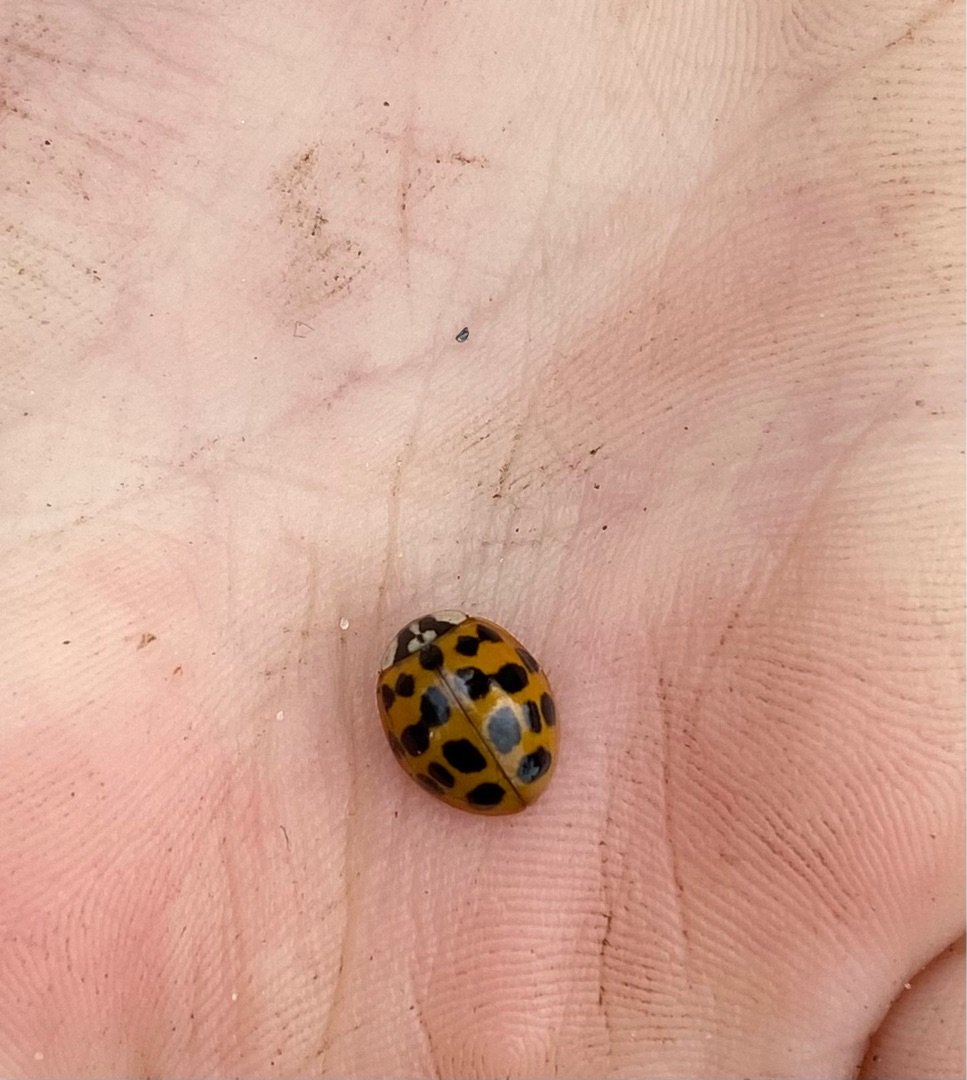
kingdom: Animalia
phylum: Arthropoda
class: Insecta
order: Coleoptera
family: Coccinellidae
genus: Harmonia
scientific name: Harmonia axyridis
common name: Harlekinmariehøne
